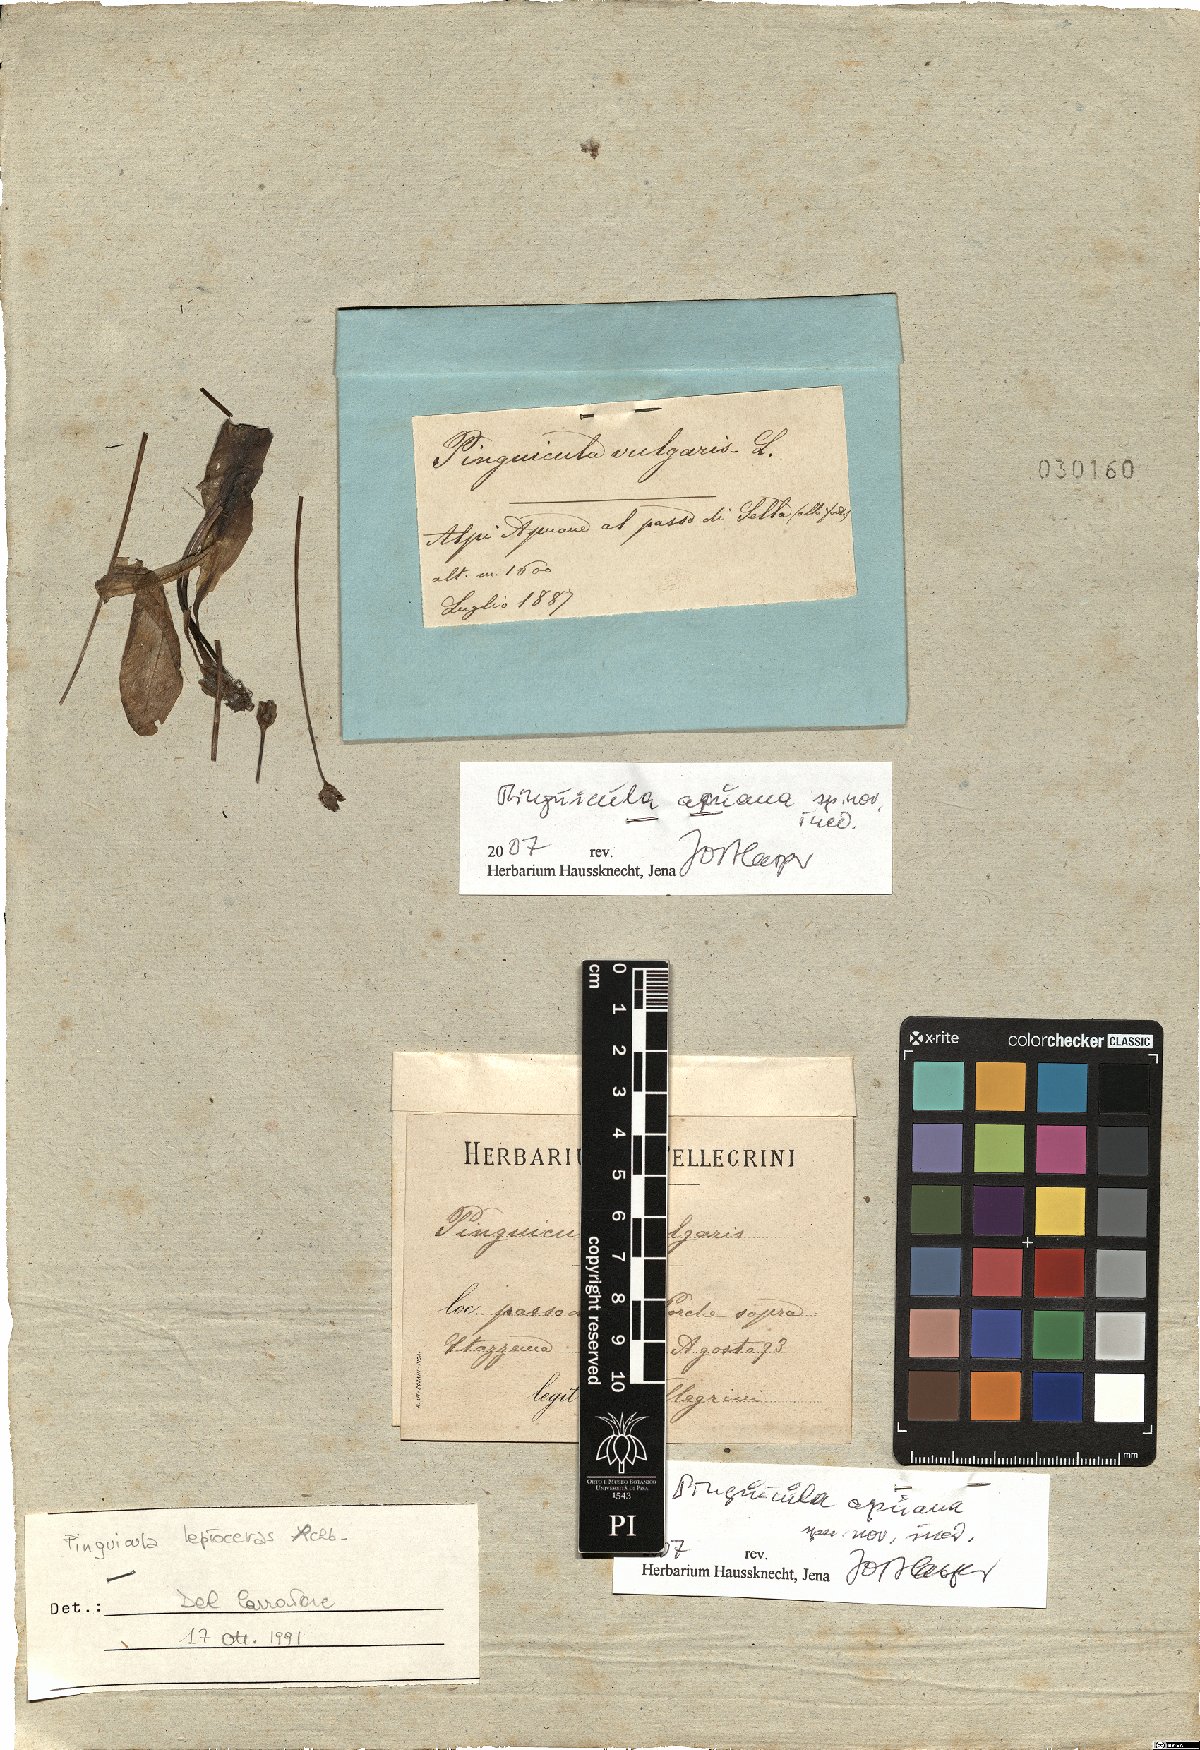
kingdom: Plantae
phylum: Tracheophyta
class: Magnoliopsida
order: Lamiales
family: Lentibulariaceae
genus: Pinguicula
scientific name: Pinguicula apuana
